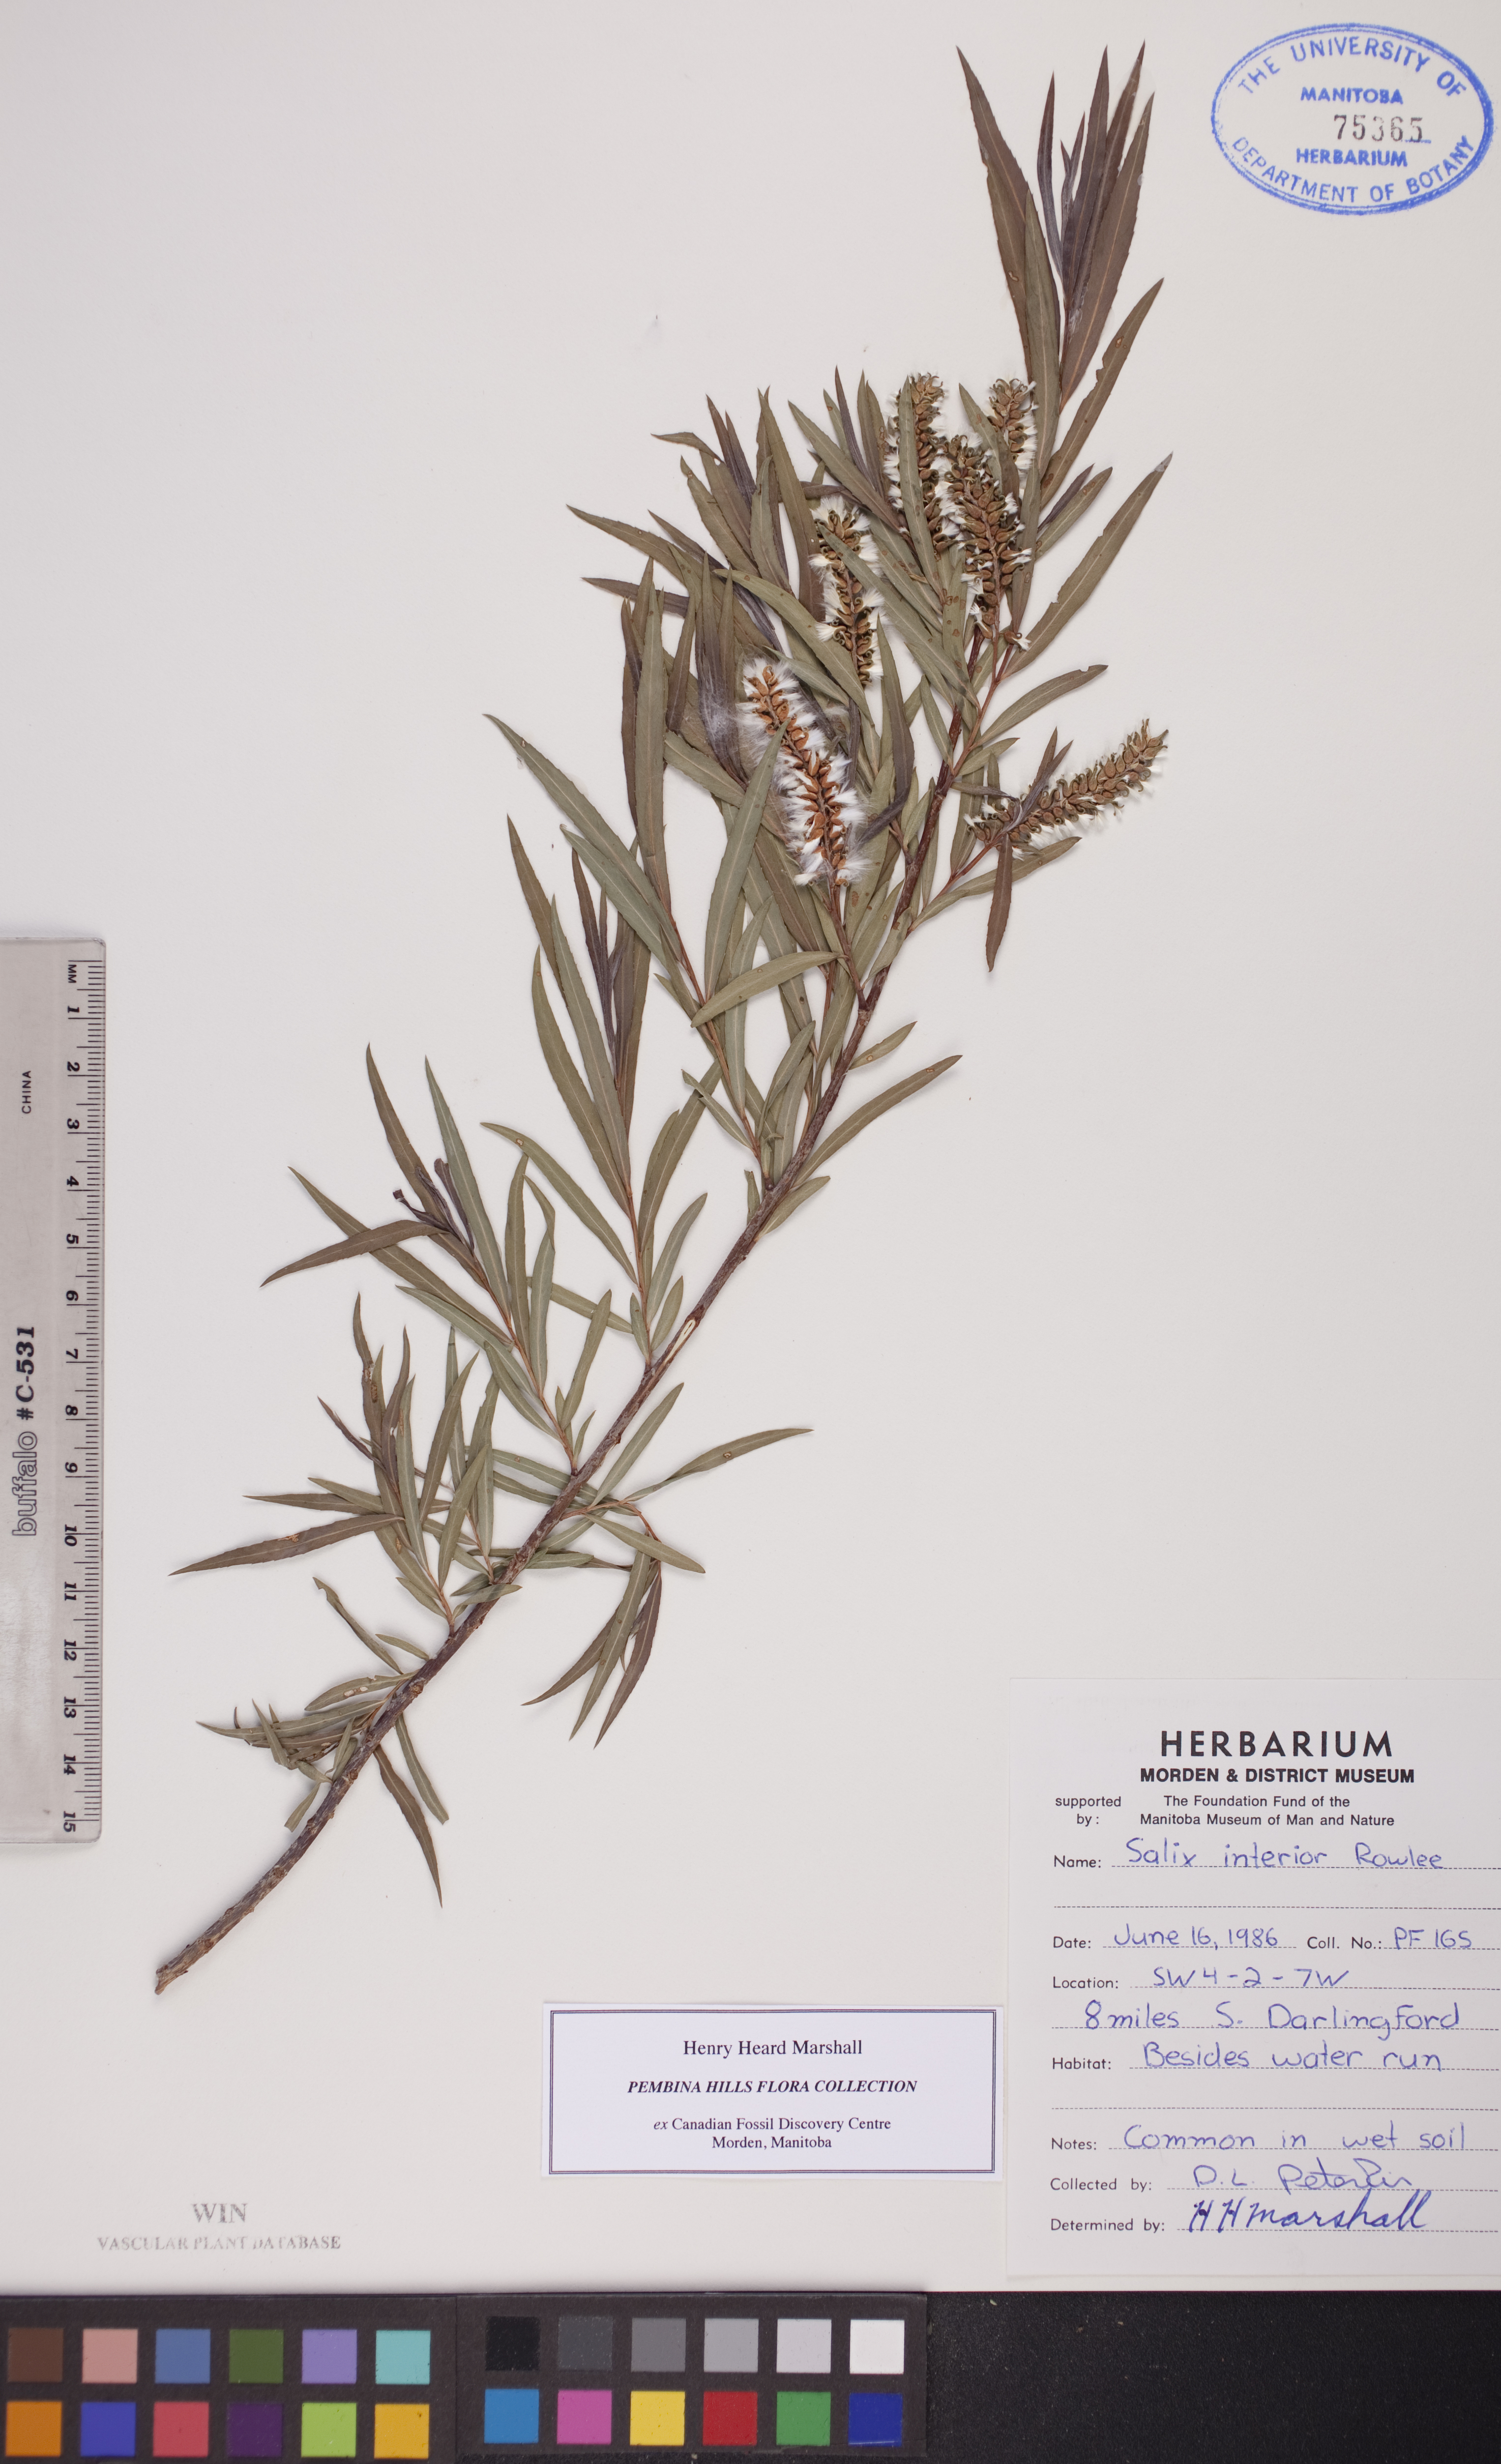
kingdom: Plantae
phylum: Tracheophyta
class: Magnoliopsida
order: Malpighiales
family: Salicaceae
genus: Salix
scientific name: Salix interior
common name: Sandbar willow
